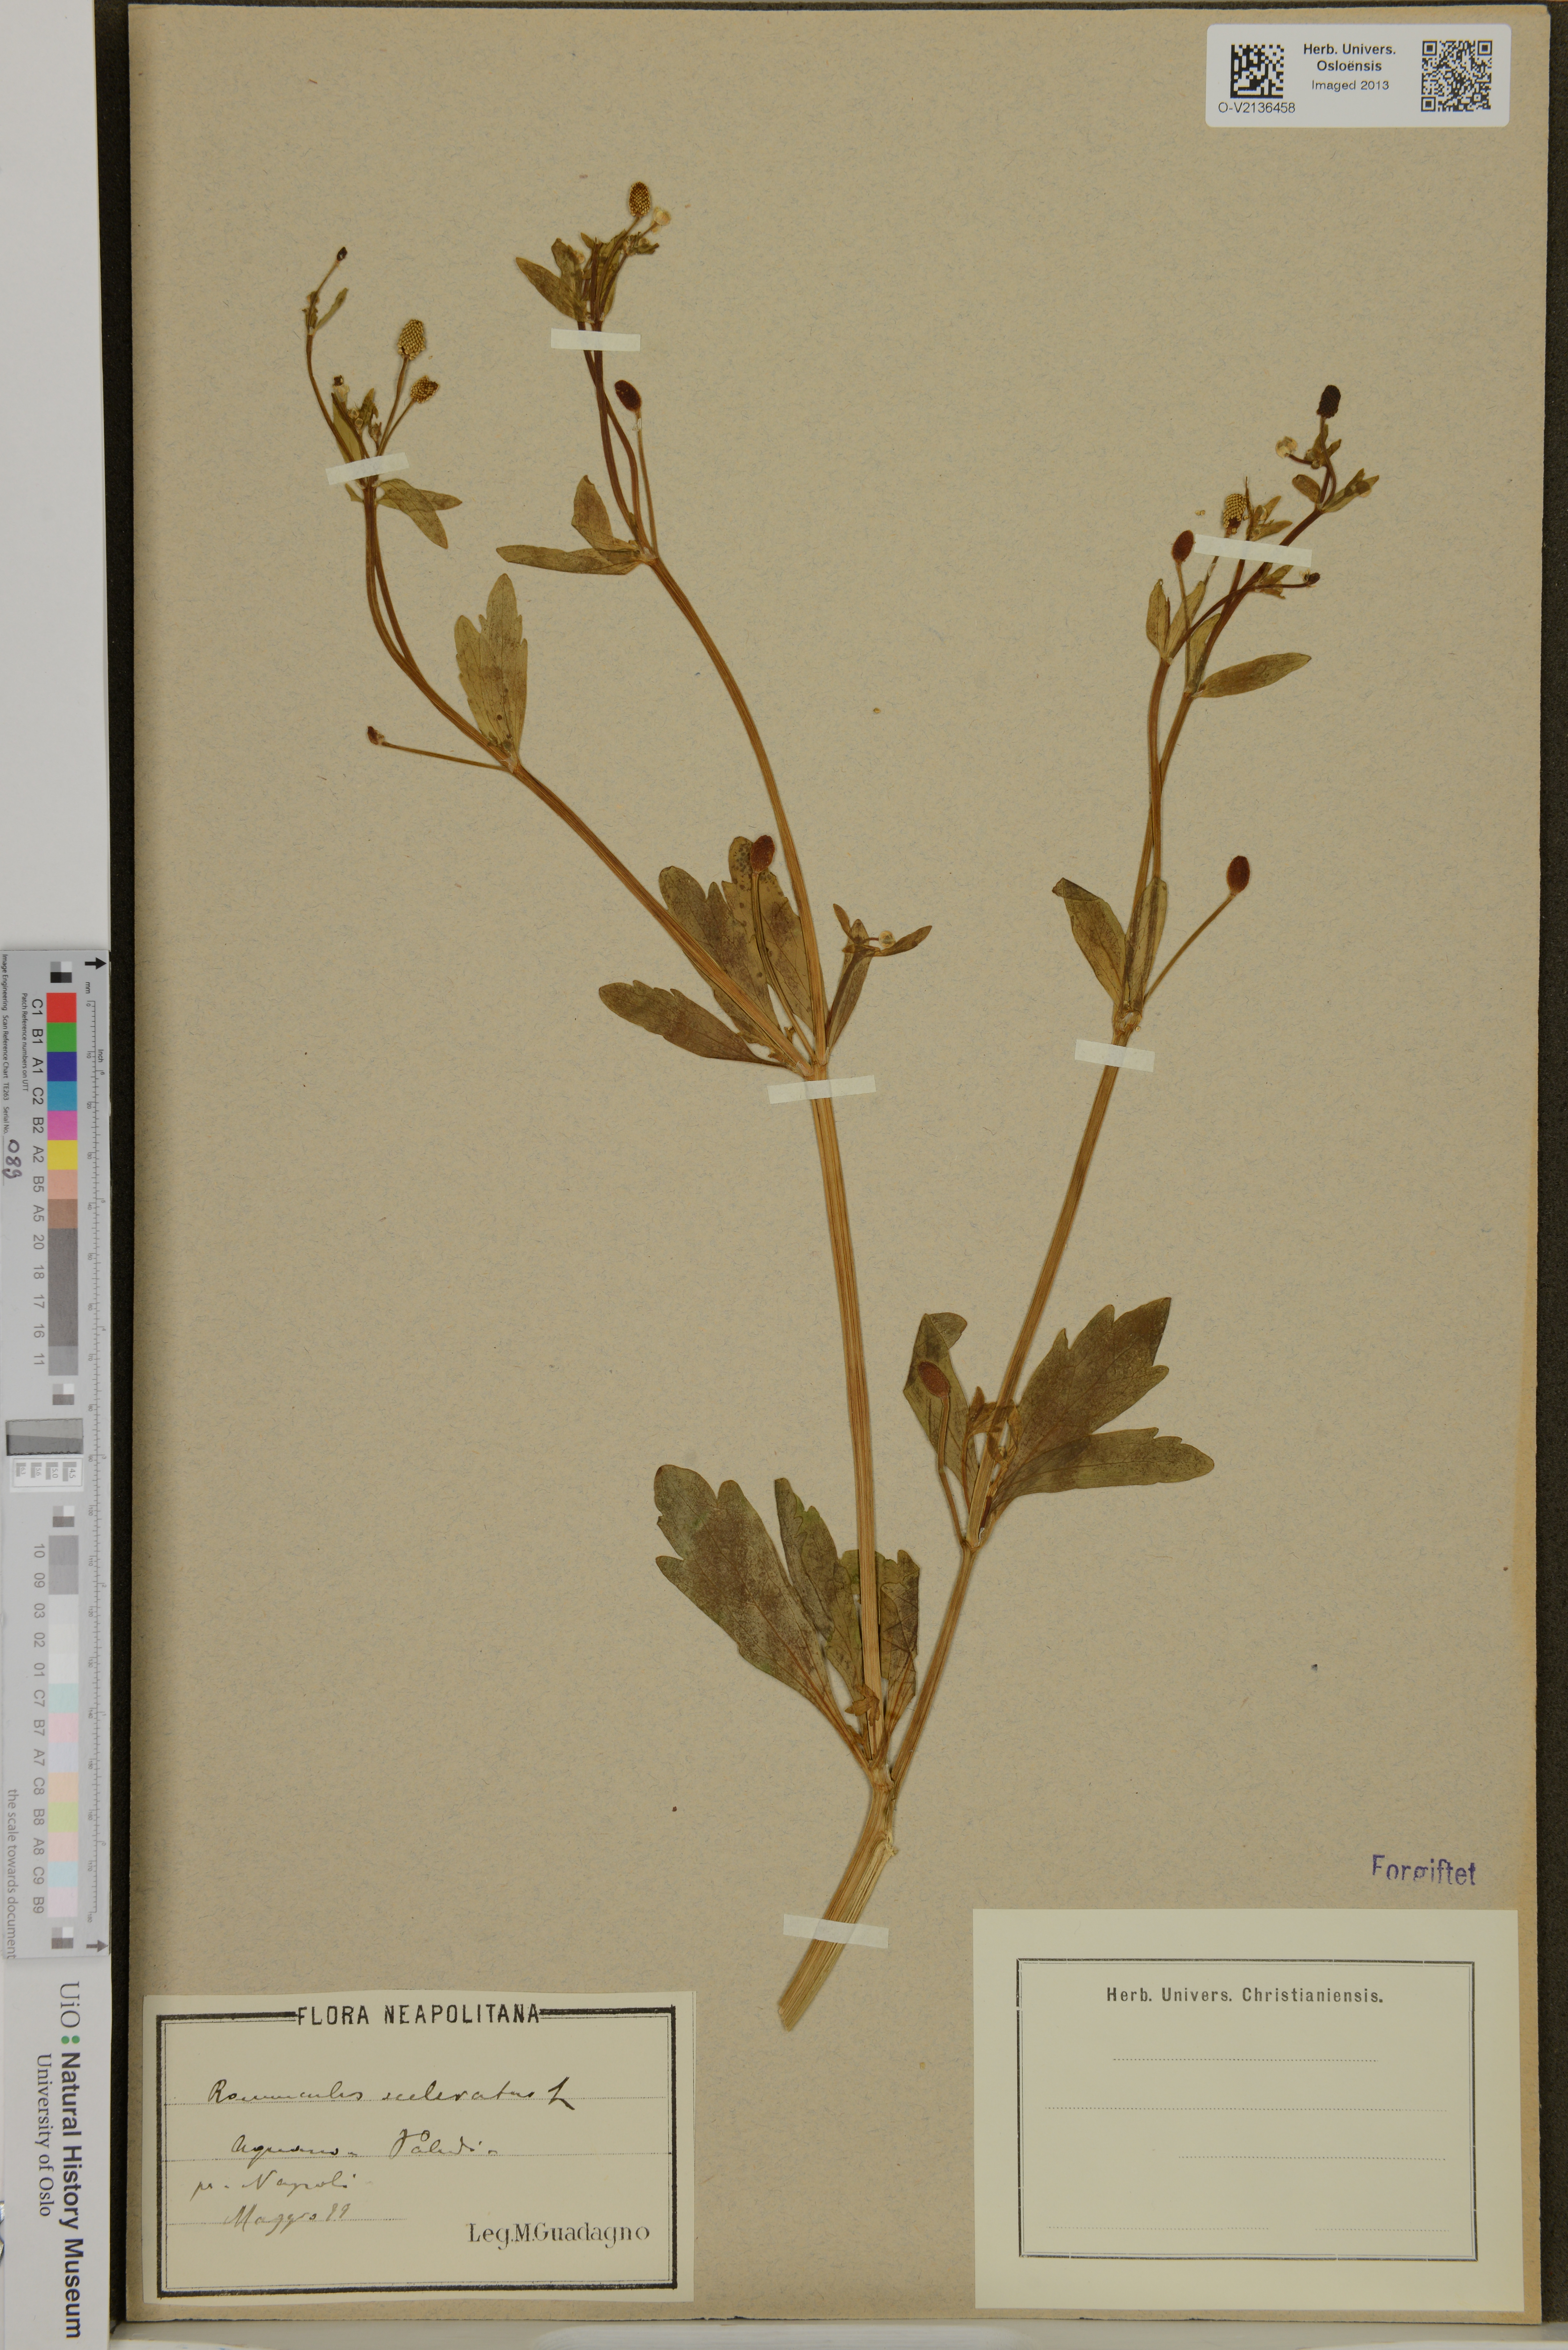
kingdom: Plantae
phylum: Tracheophyta
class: Magnoliopsida
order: Ranunculales
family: Ranunculaceae
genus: Ranunculus
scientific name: Ranunculus sceleratus
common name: Celery-leaved buttercup
